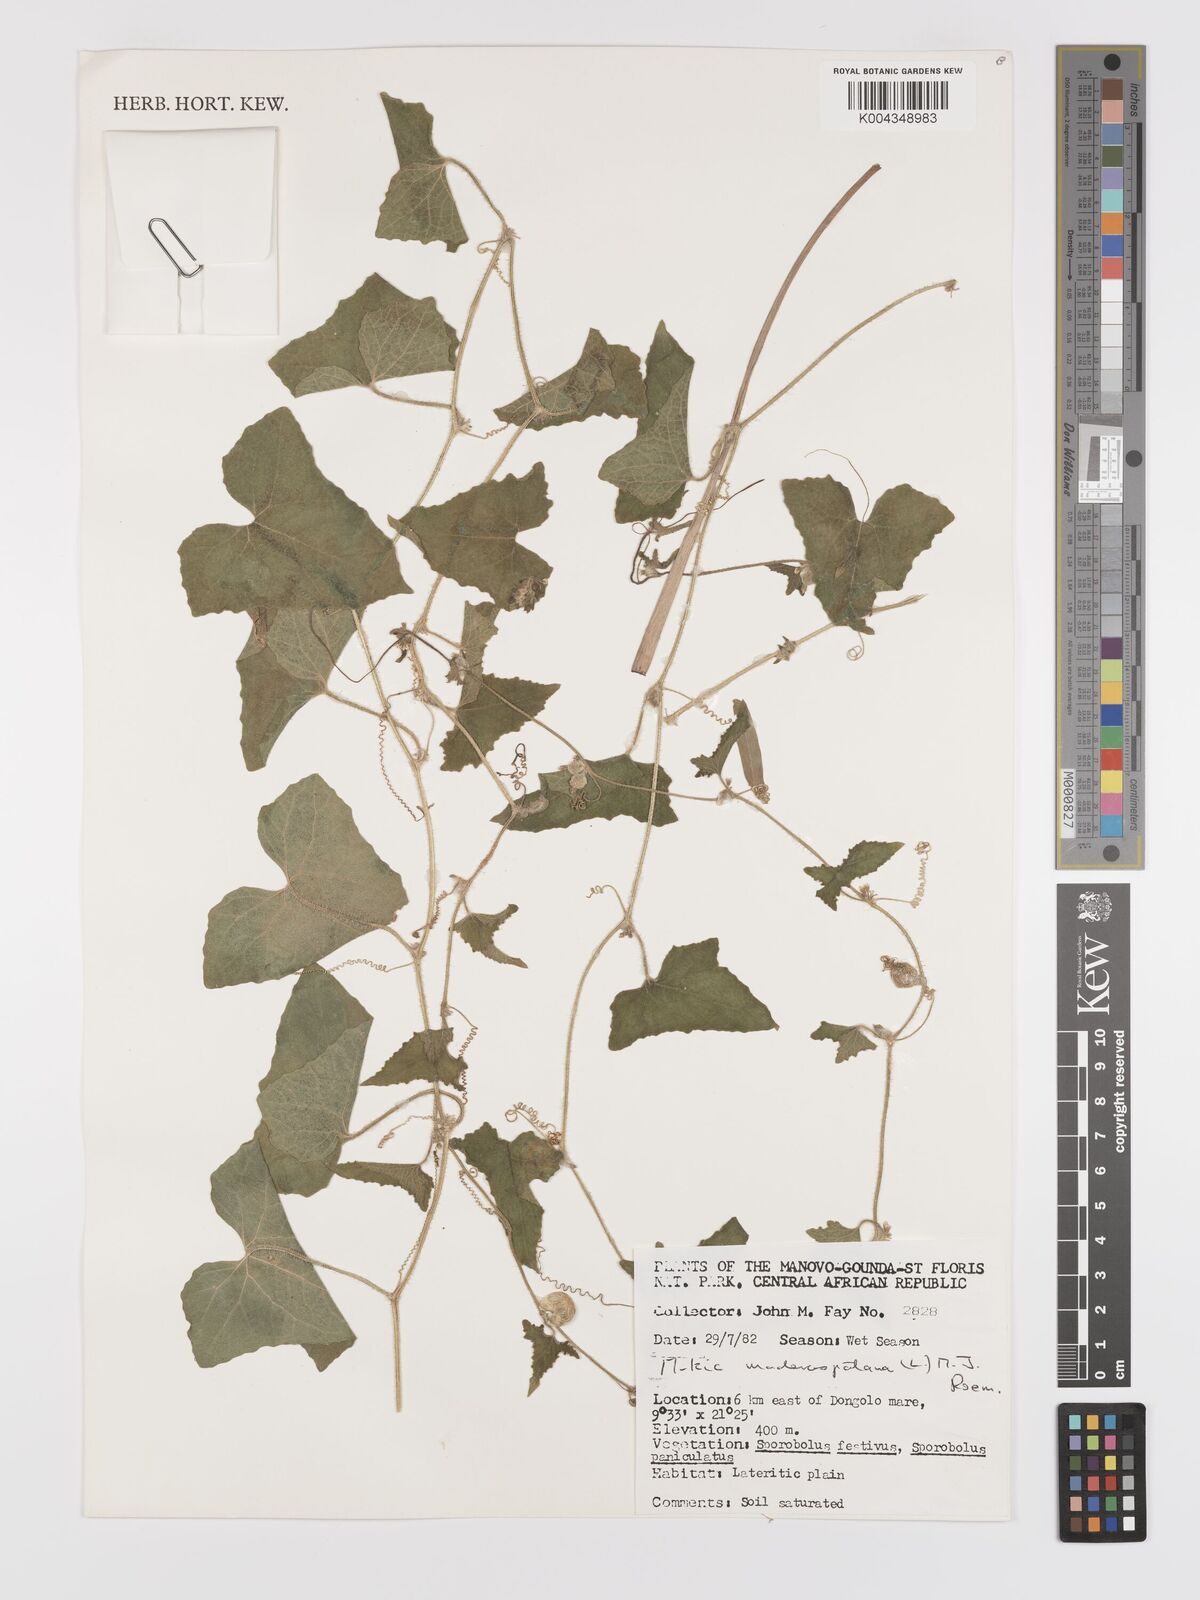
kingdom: Plantae
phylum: Tracheophyta
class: Magnoliopsida
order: Cucurbitales
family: Cucurbitaceae
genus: Cucumis
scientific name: Cucumis maderaspatanus
